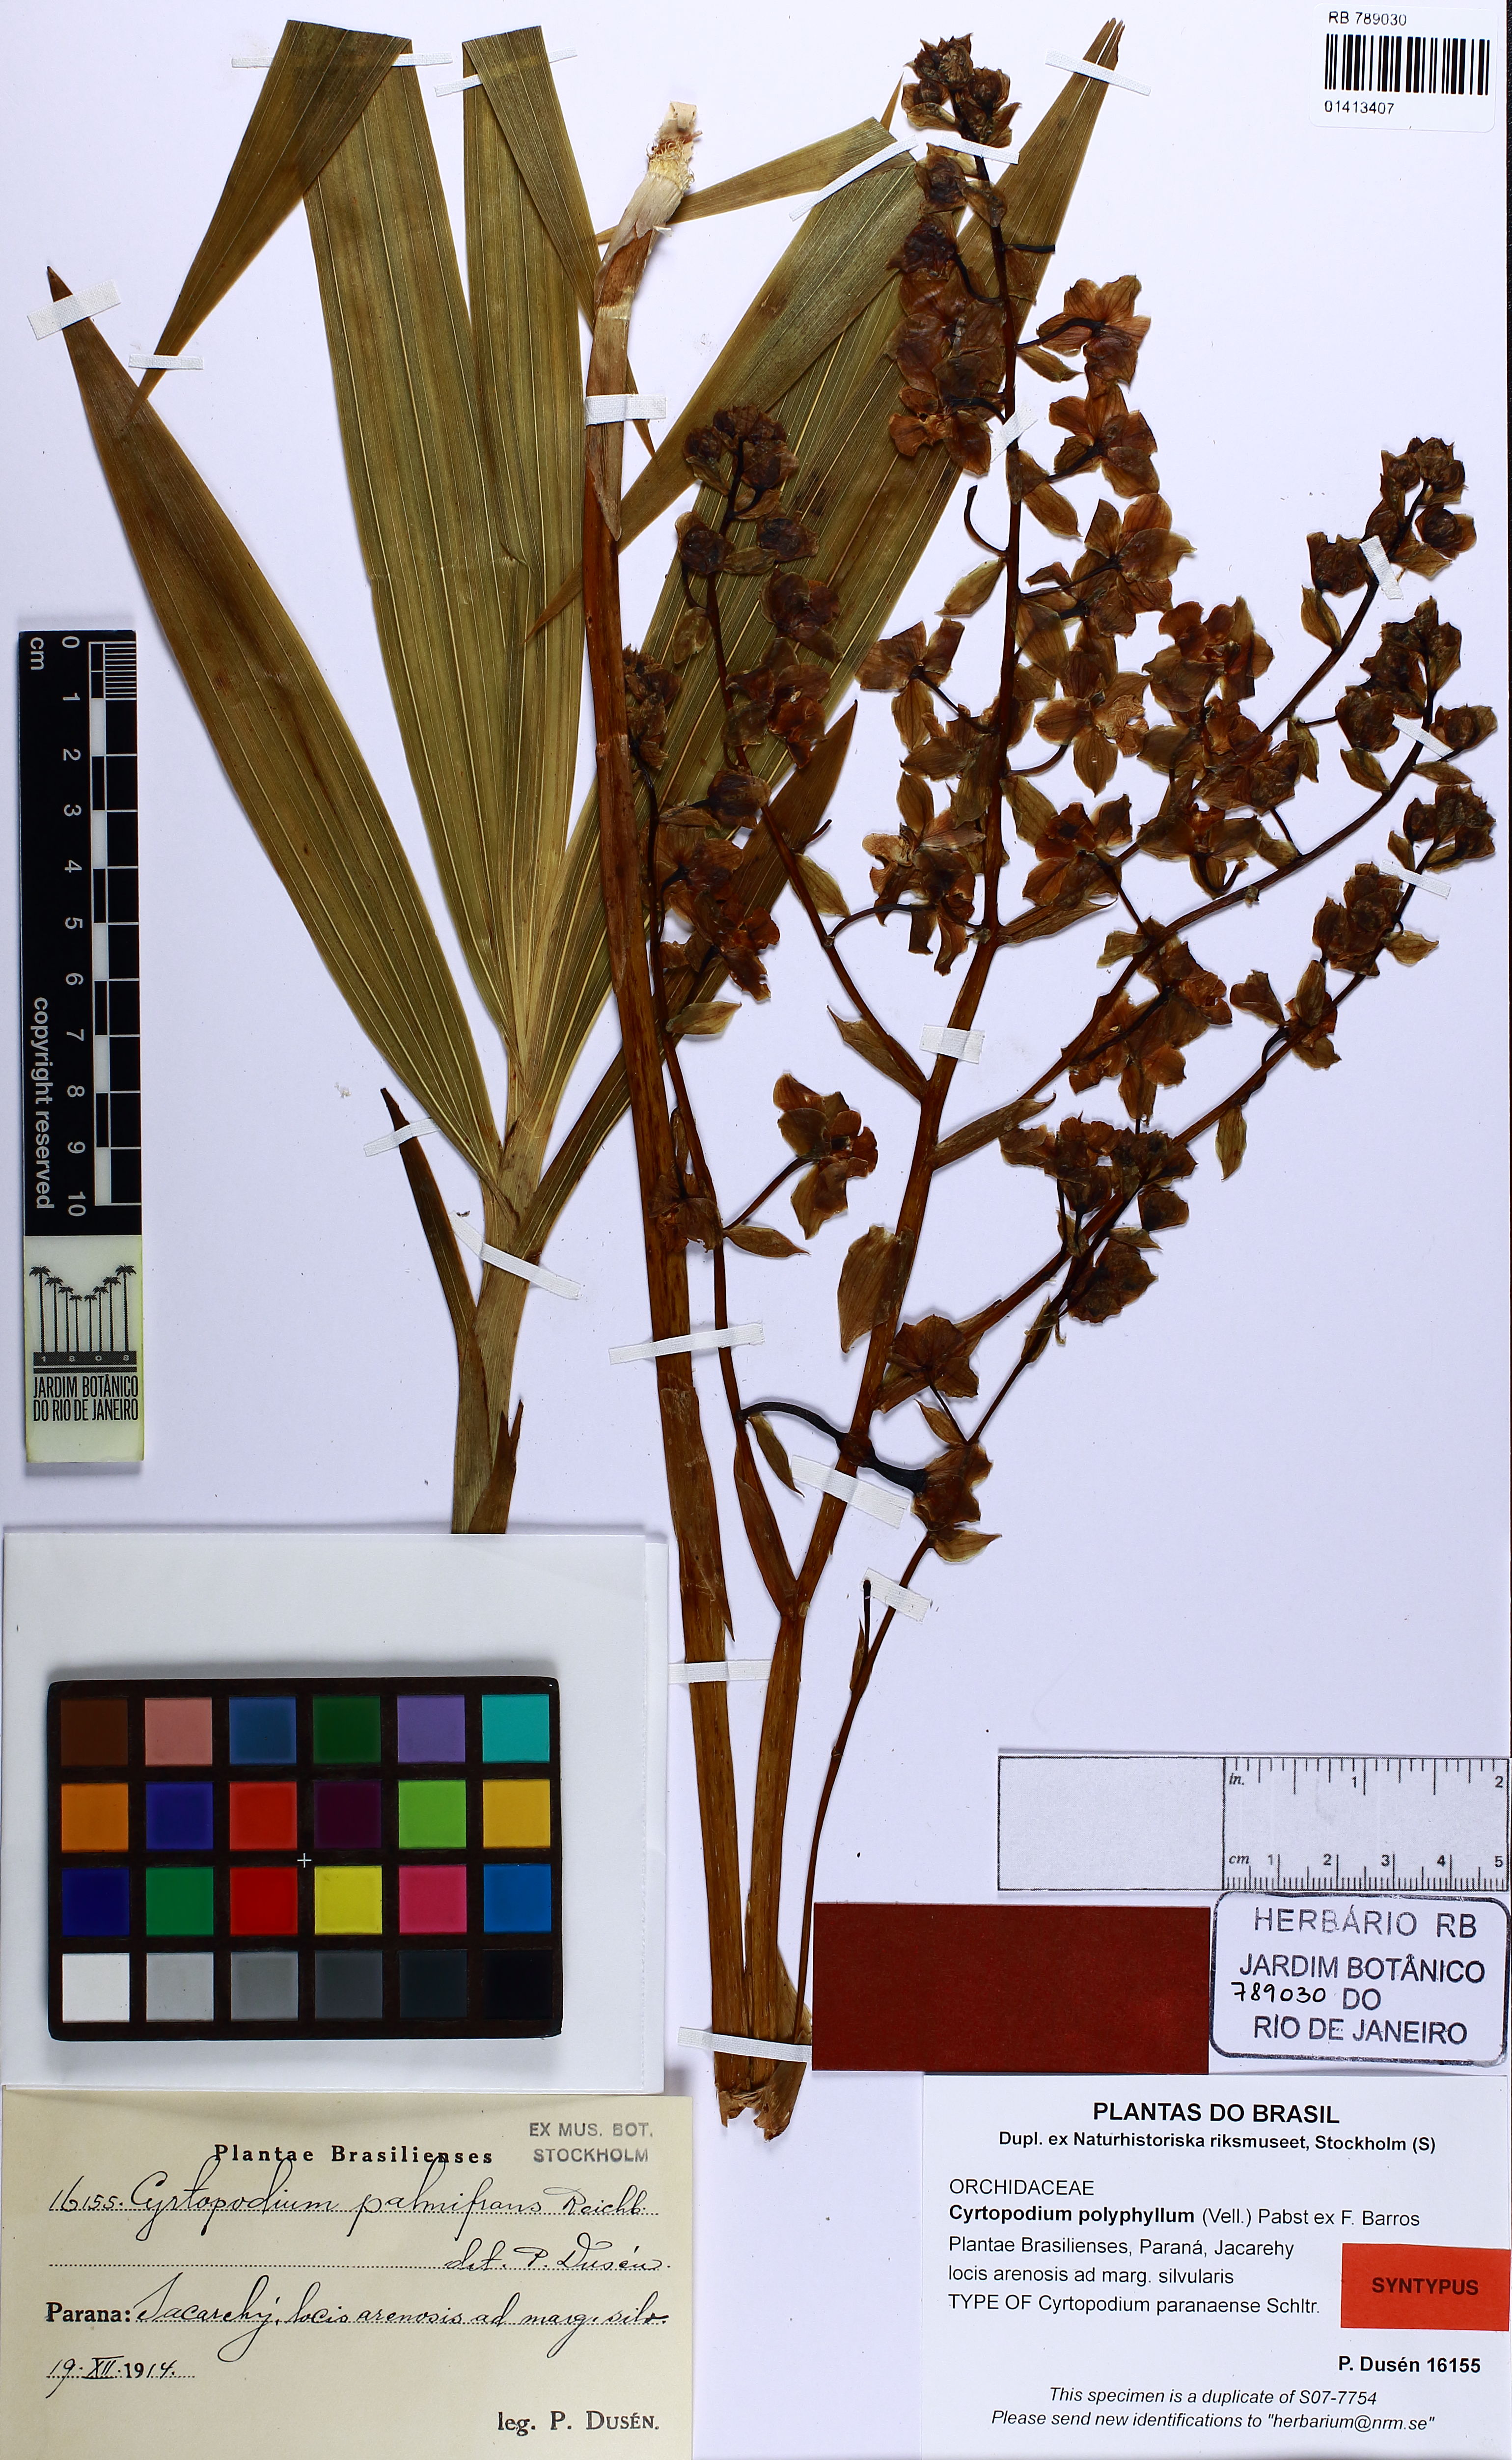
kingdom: Plantae
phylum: Tracheophyta
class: Liliopsida
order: Asparagales
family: Orchidaceae
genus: Cyrtopodium
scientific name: Cyrtopodium flavum
